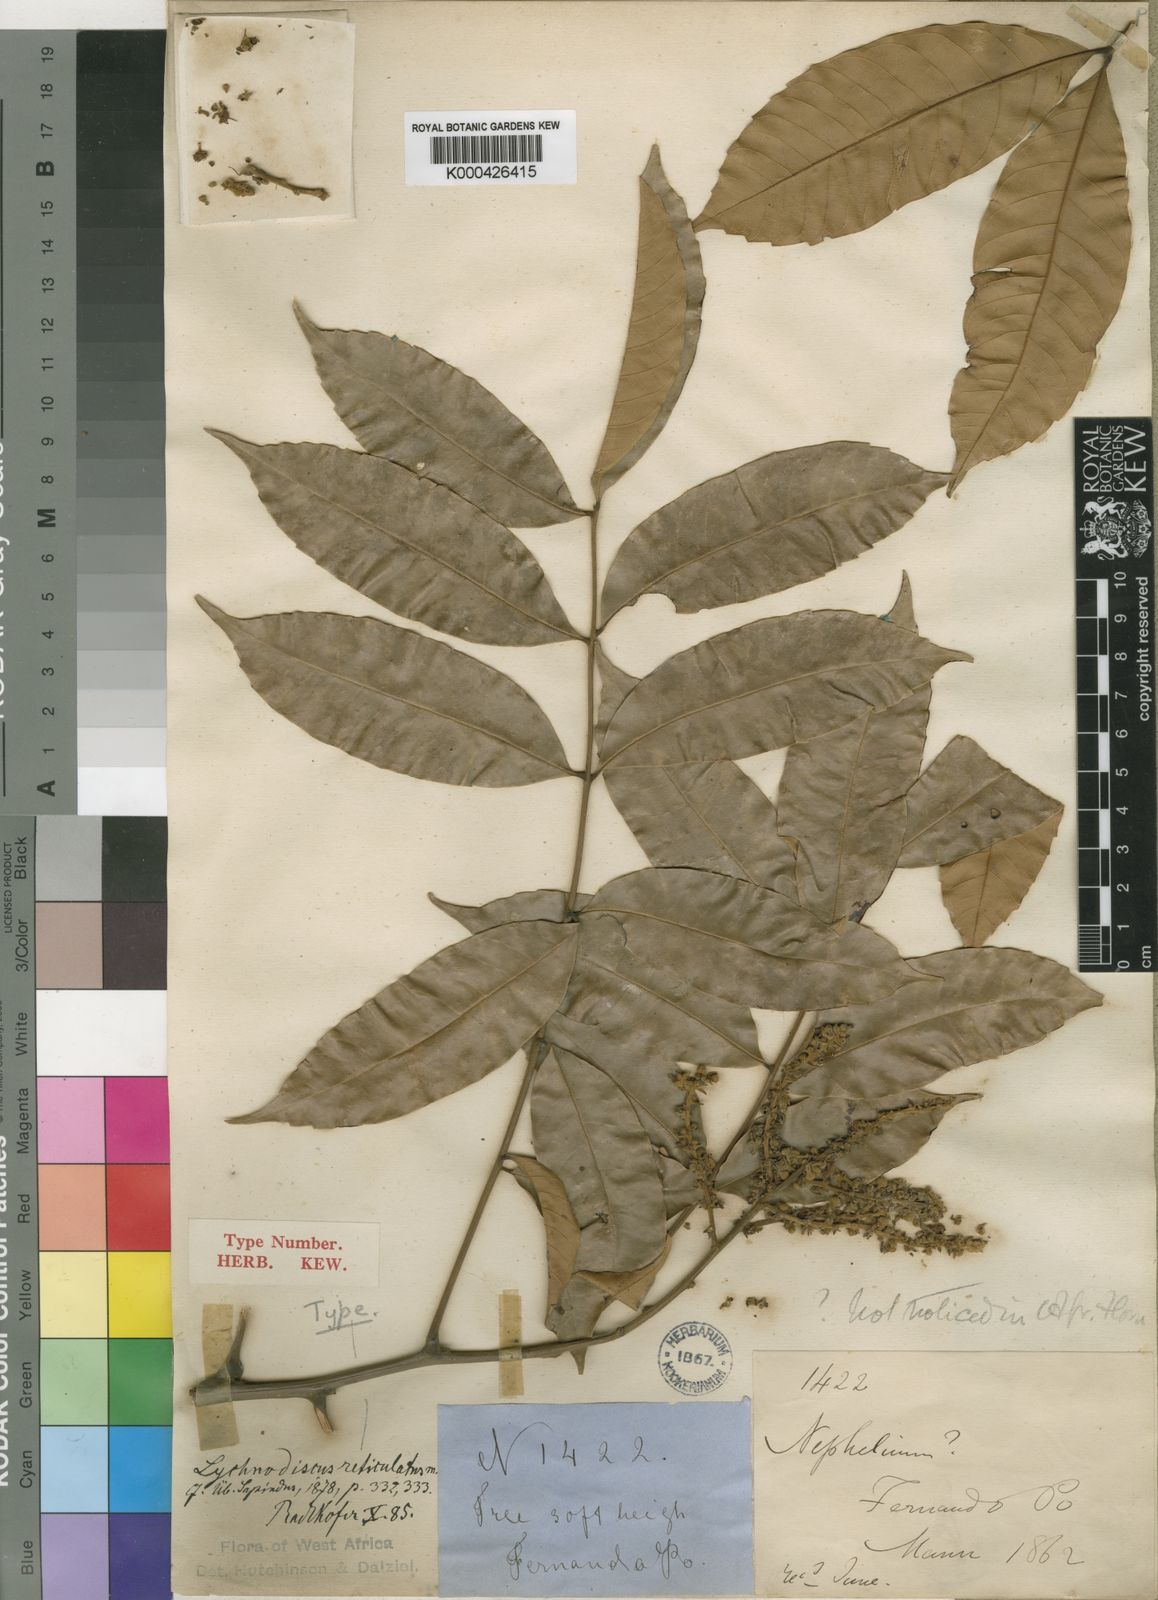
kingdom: Plantae
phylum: Tracheophyta
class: Magnoliopsida
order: Sapindales
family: Sapindaceae
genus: Lychnodiscus
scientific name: Lychnodiscus reticulatus
